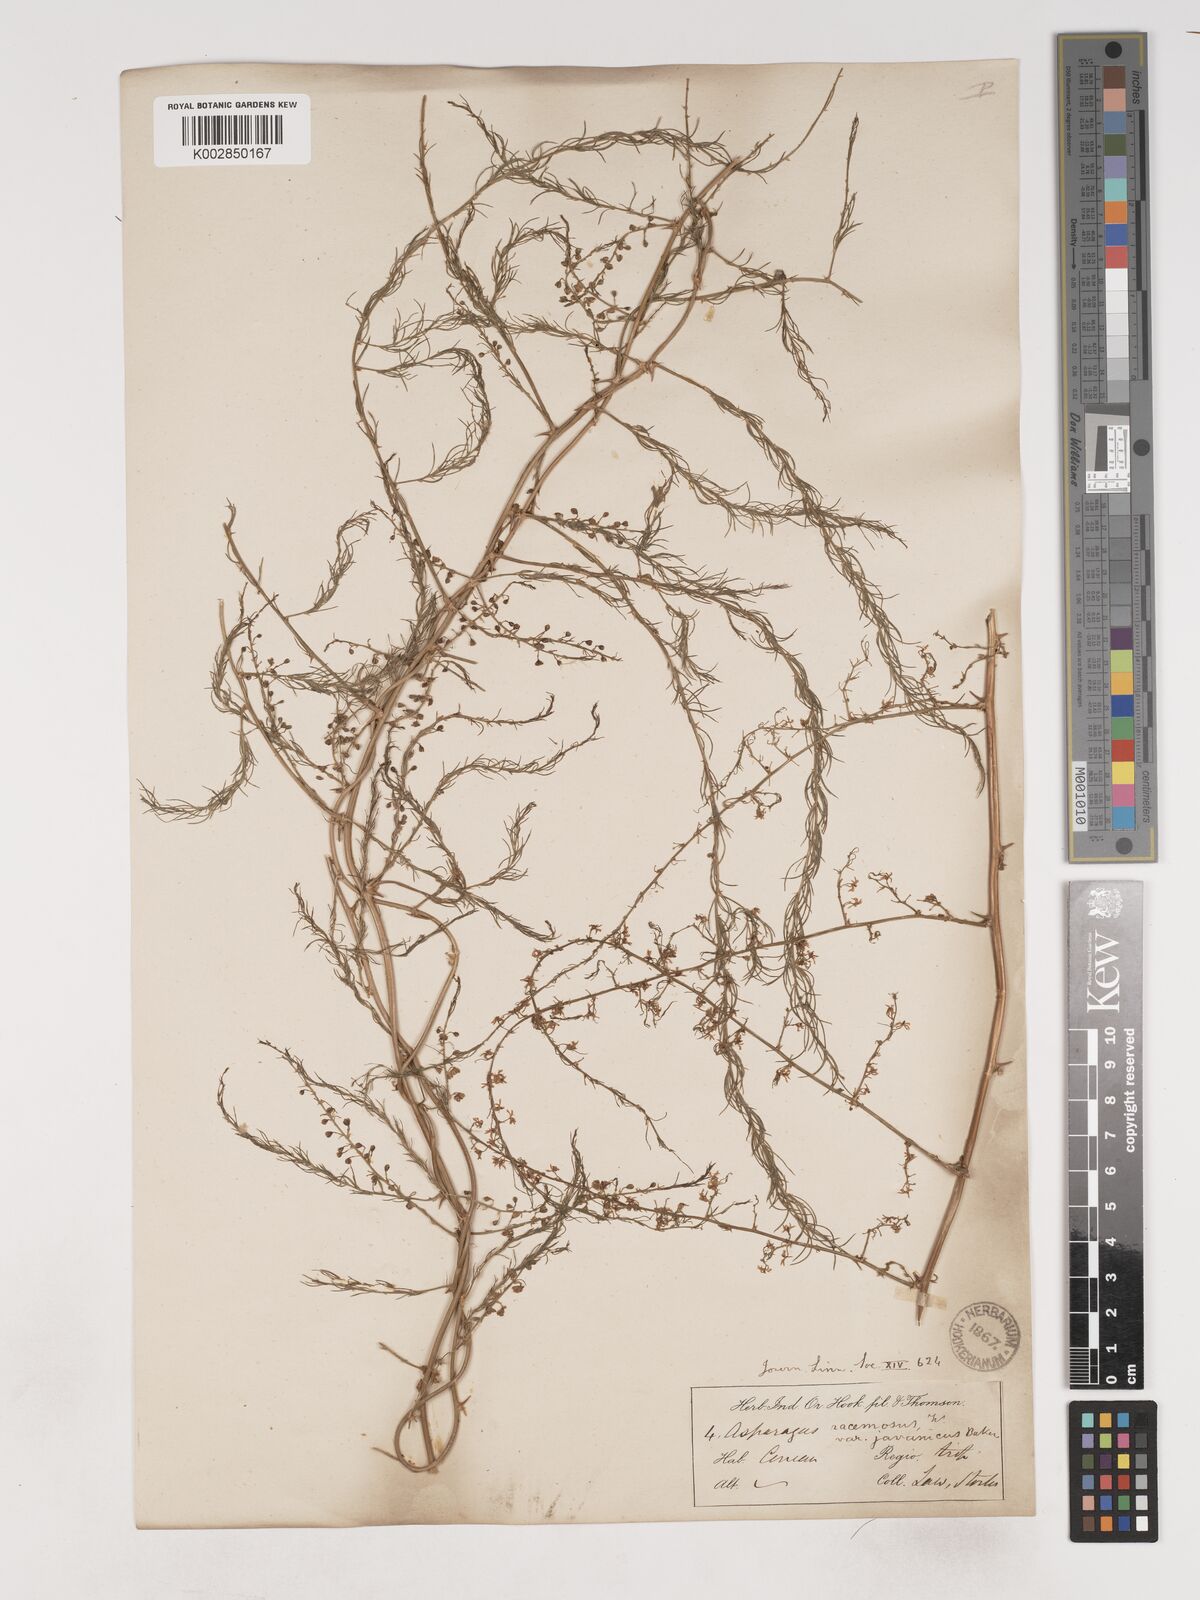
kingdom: Plantae
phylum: Tracheophyta
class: Liliopsida
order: Asparagales
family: Asparagaceae
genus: Asparagus
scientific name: Asparagus racemosus
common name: Asparagus-fern
